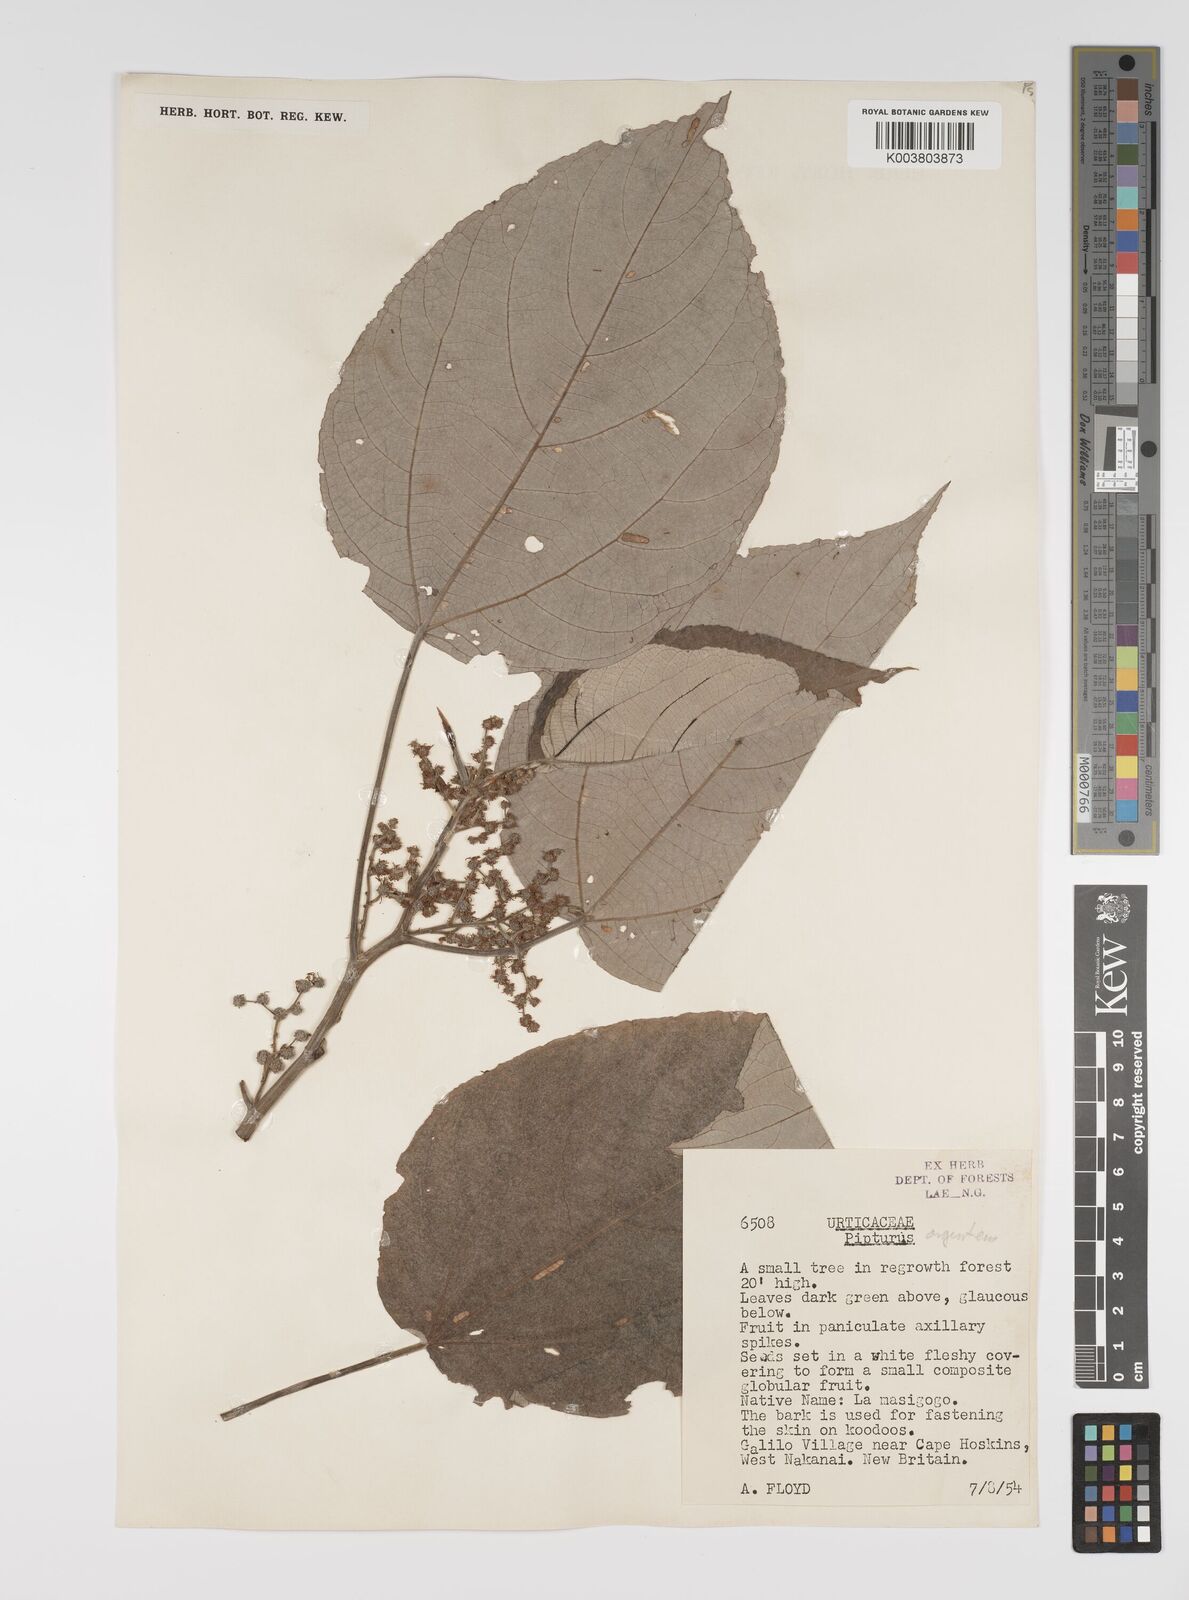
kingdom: Plantae
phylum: Tracheophyta
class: Magnoliopsida
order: Rosales
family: Urticaceae
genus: Pipturus
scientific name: Pipturus argenteus
